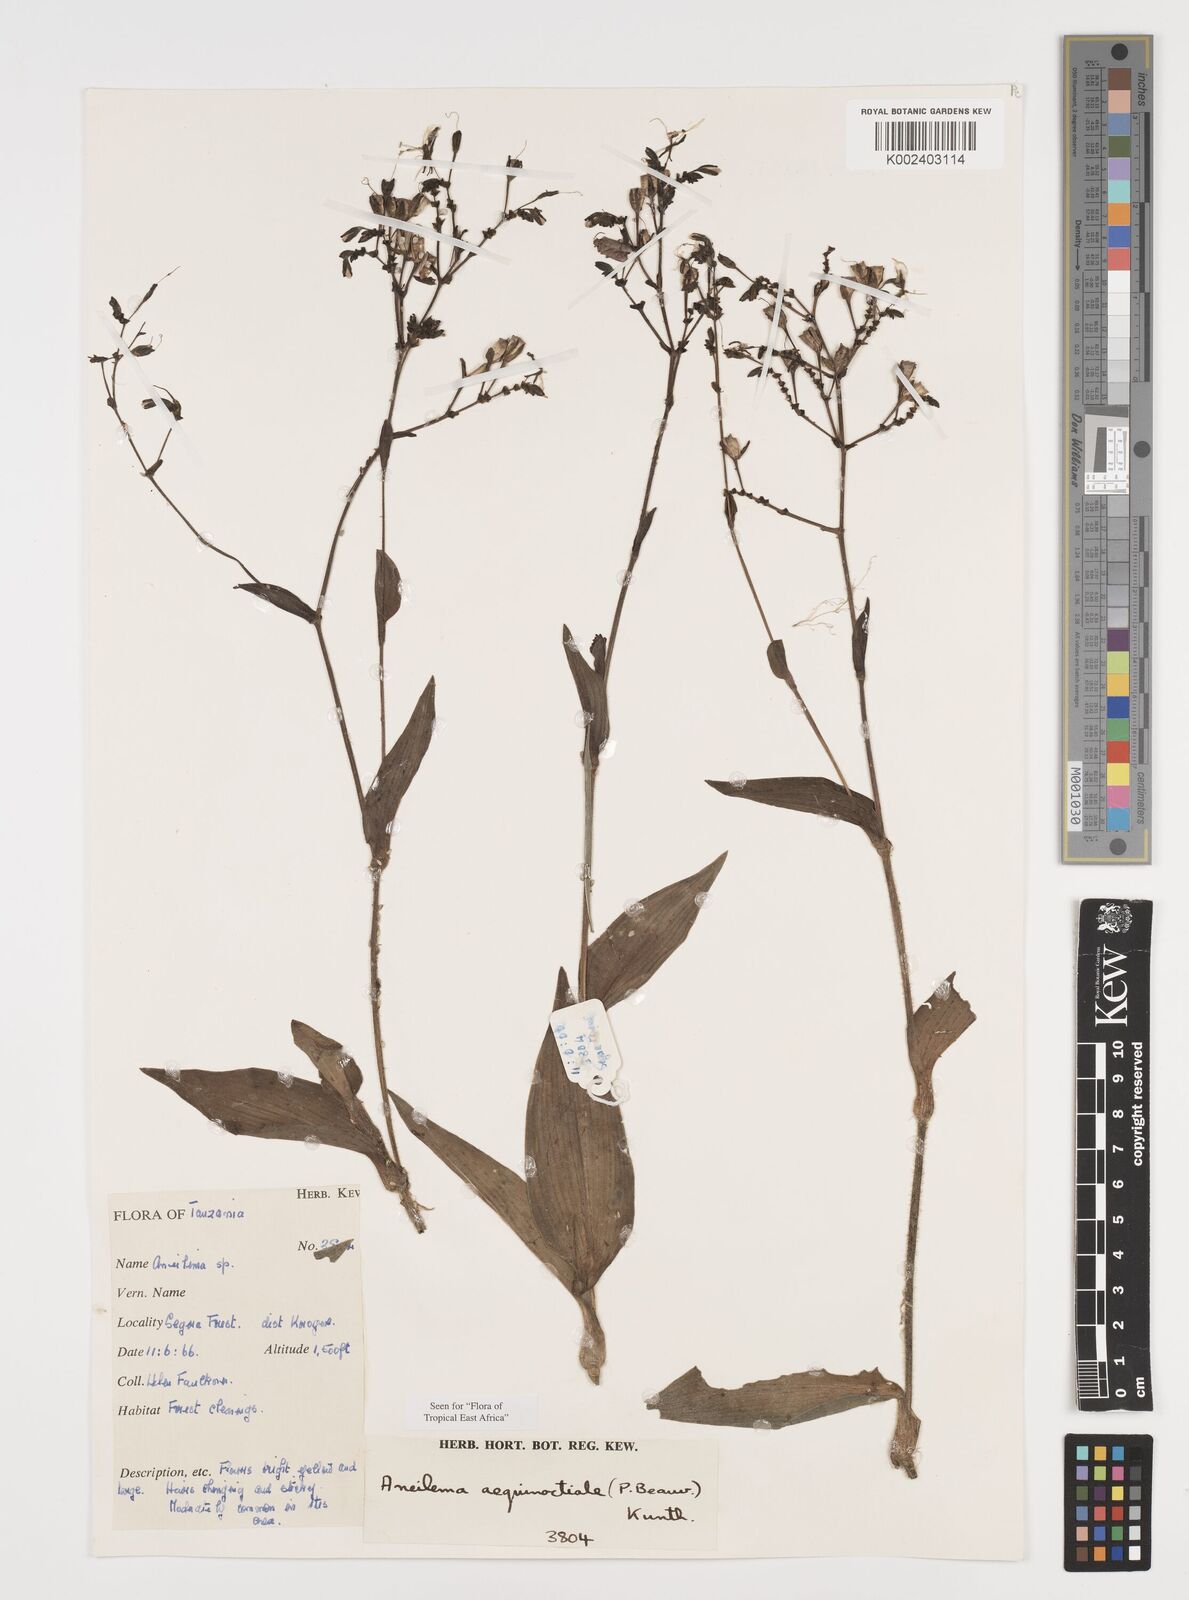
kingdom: Plantae
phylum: Tracheophyta
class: Liliopsida
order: Commelinales
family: Commelinaceae
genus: Aneilema
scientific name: Aneilema aequinoctiale
